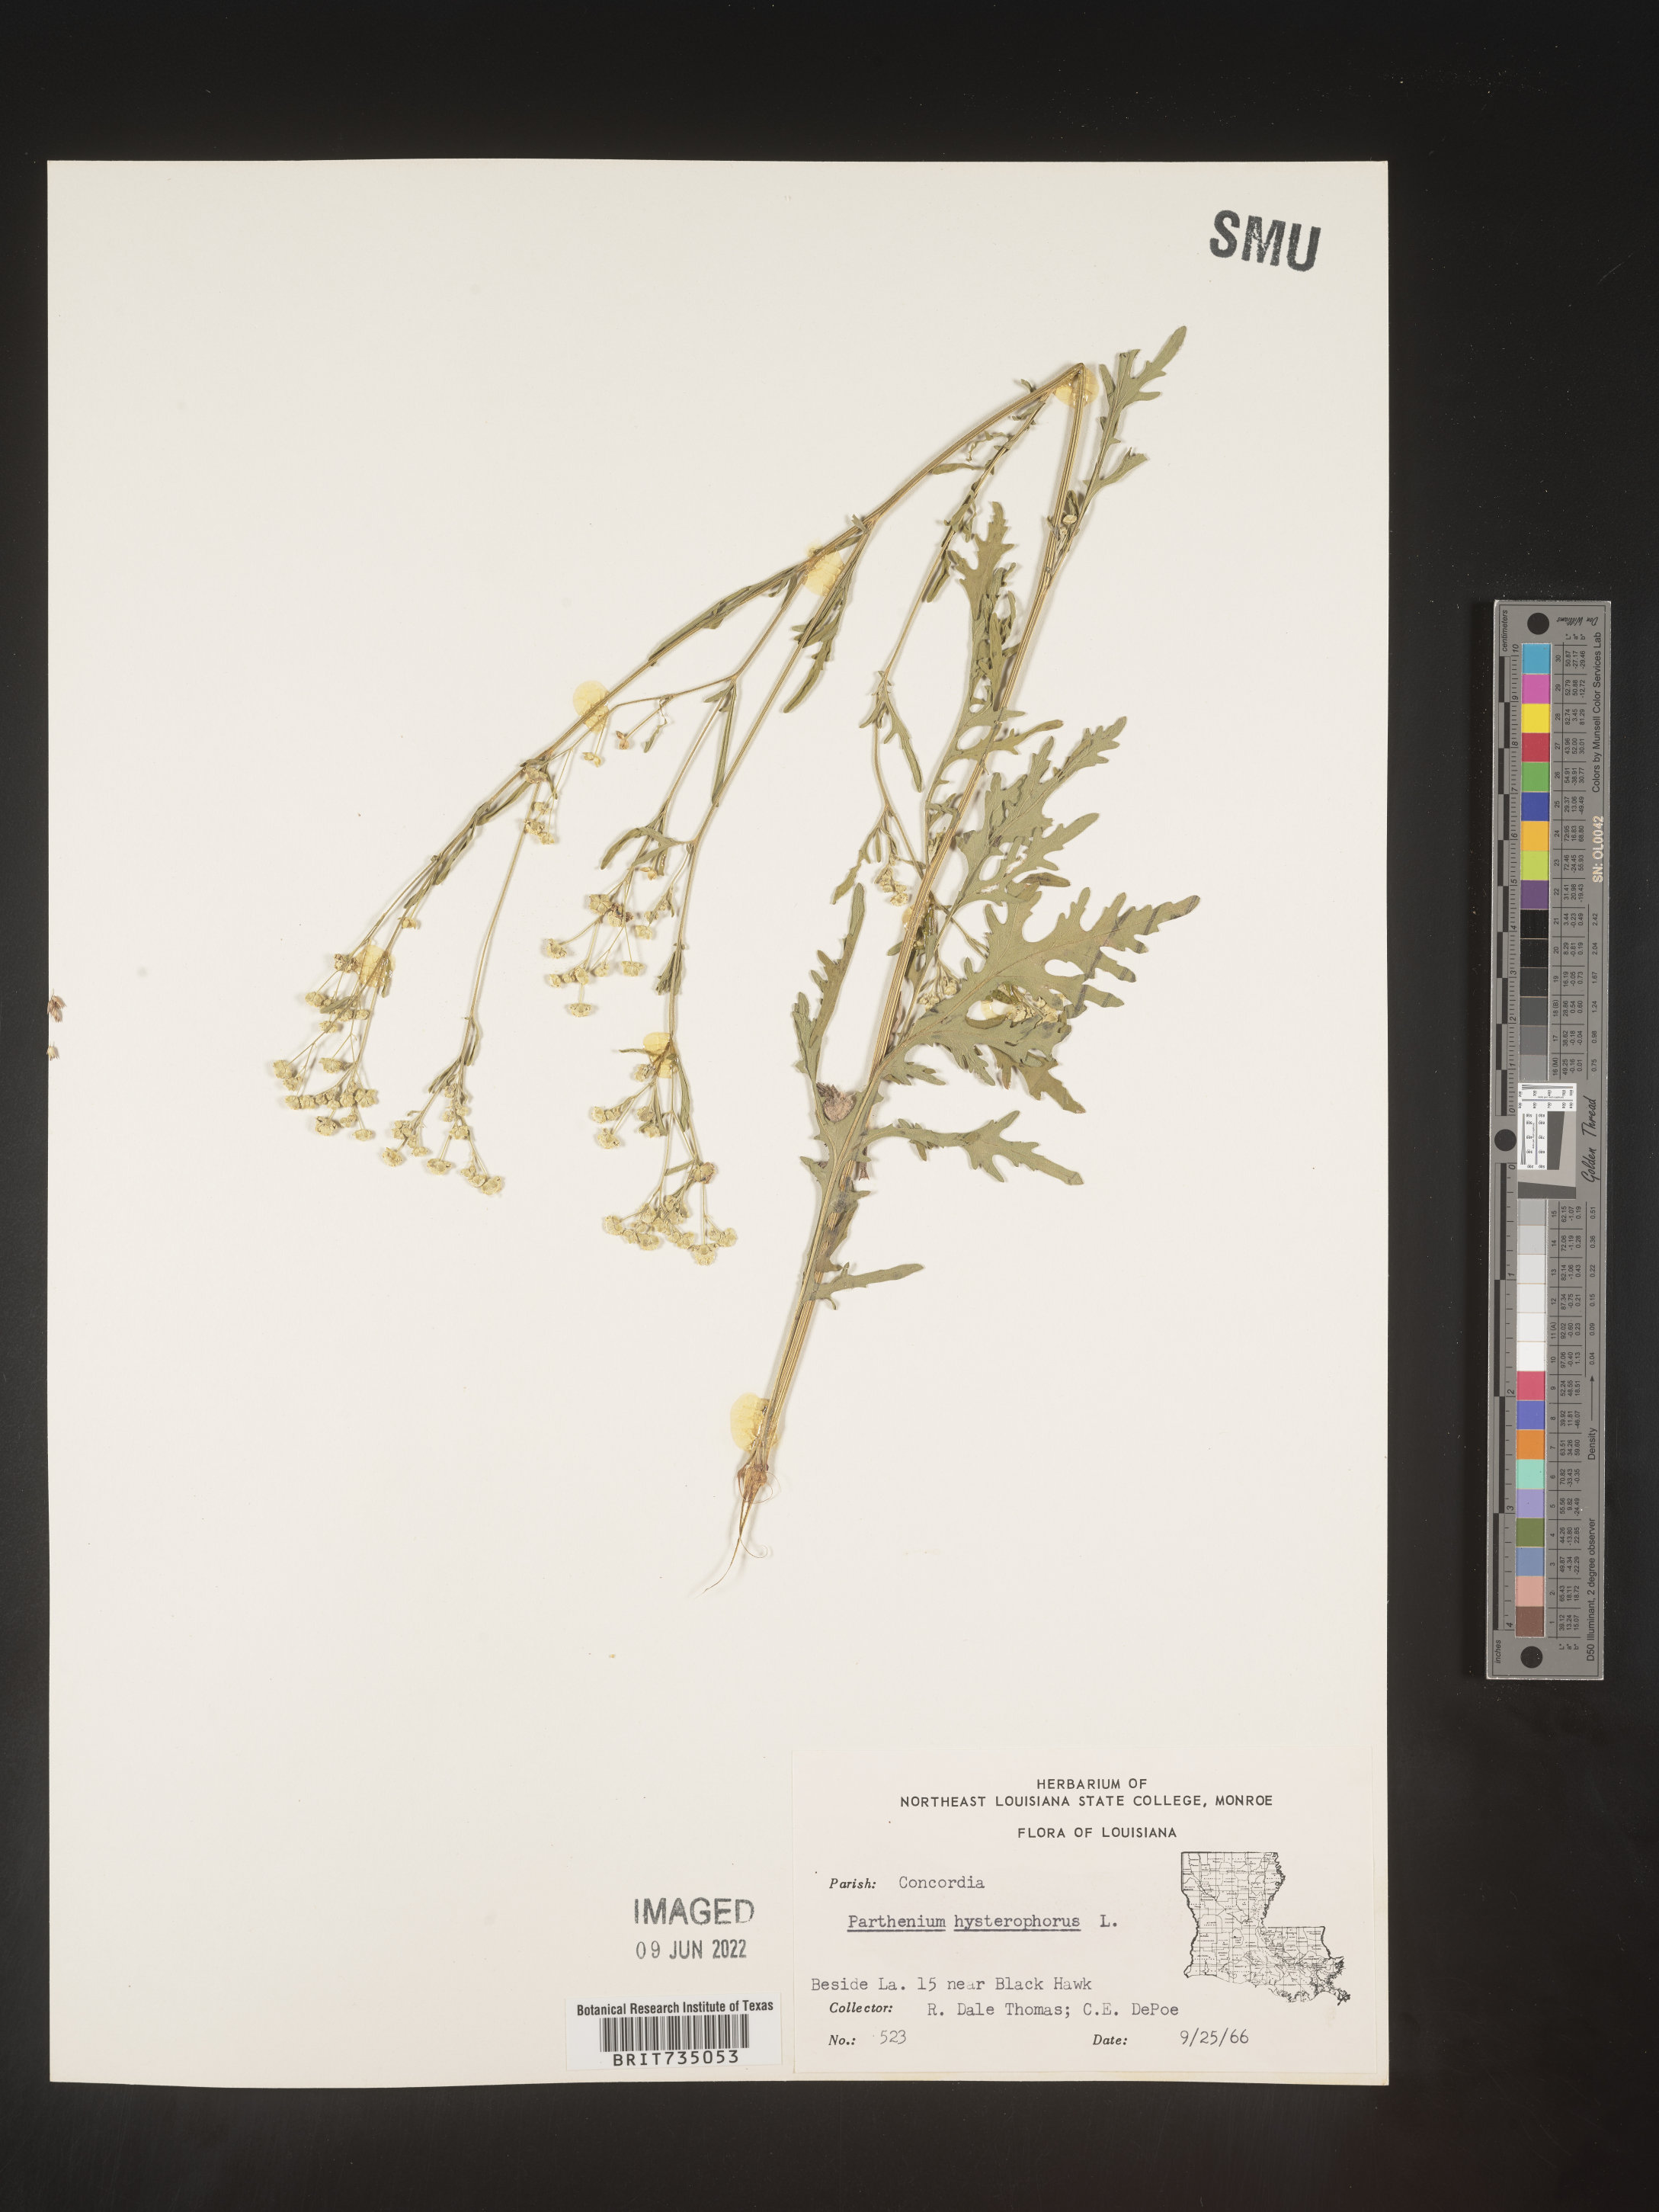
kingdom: Plantae
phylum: Tracheophyta
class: Magnoliopsida
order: Asterales
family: Asteraceae
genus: Parthenium
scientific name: Parthenium hysterophorus
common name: Santa maria feverfew
